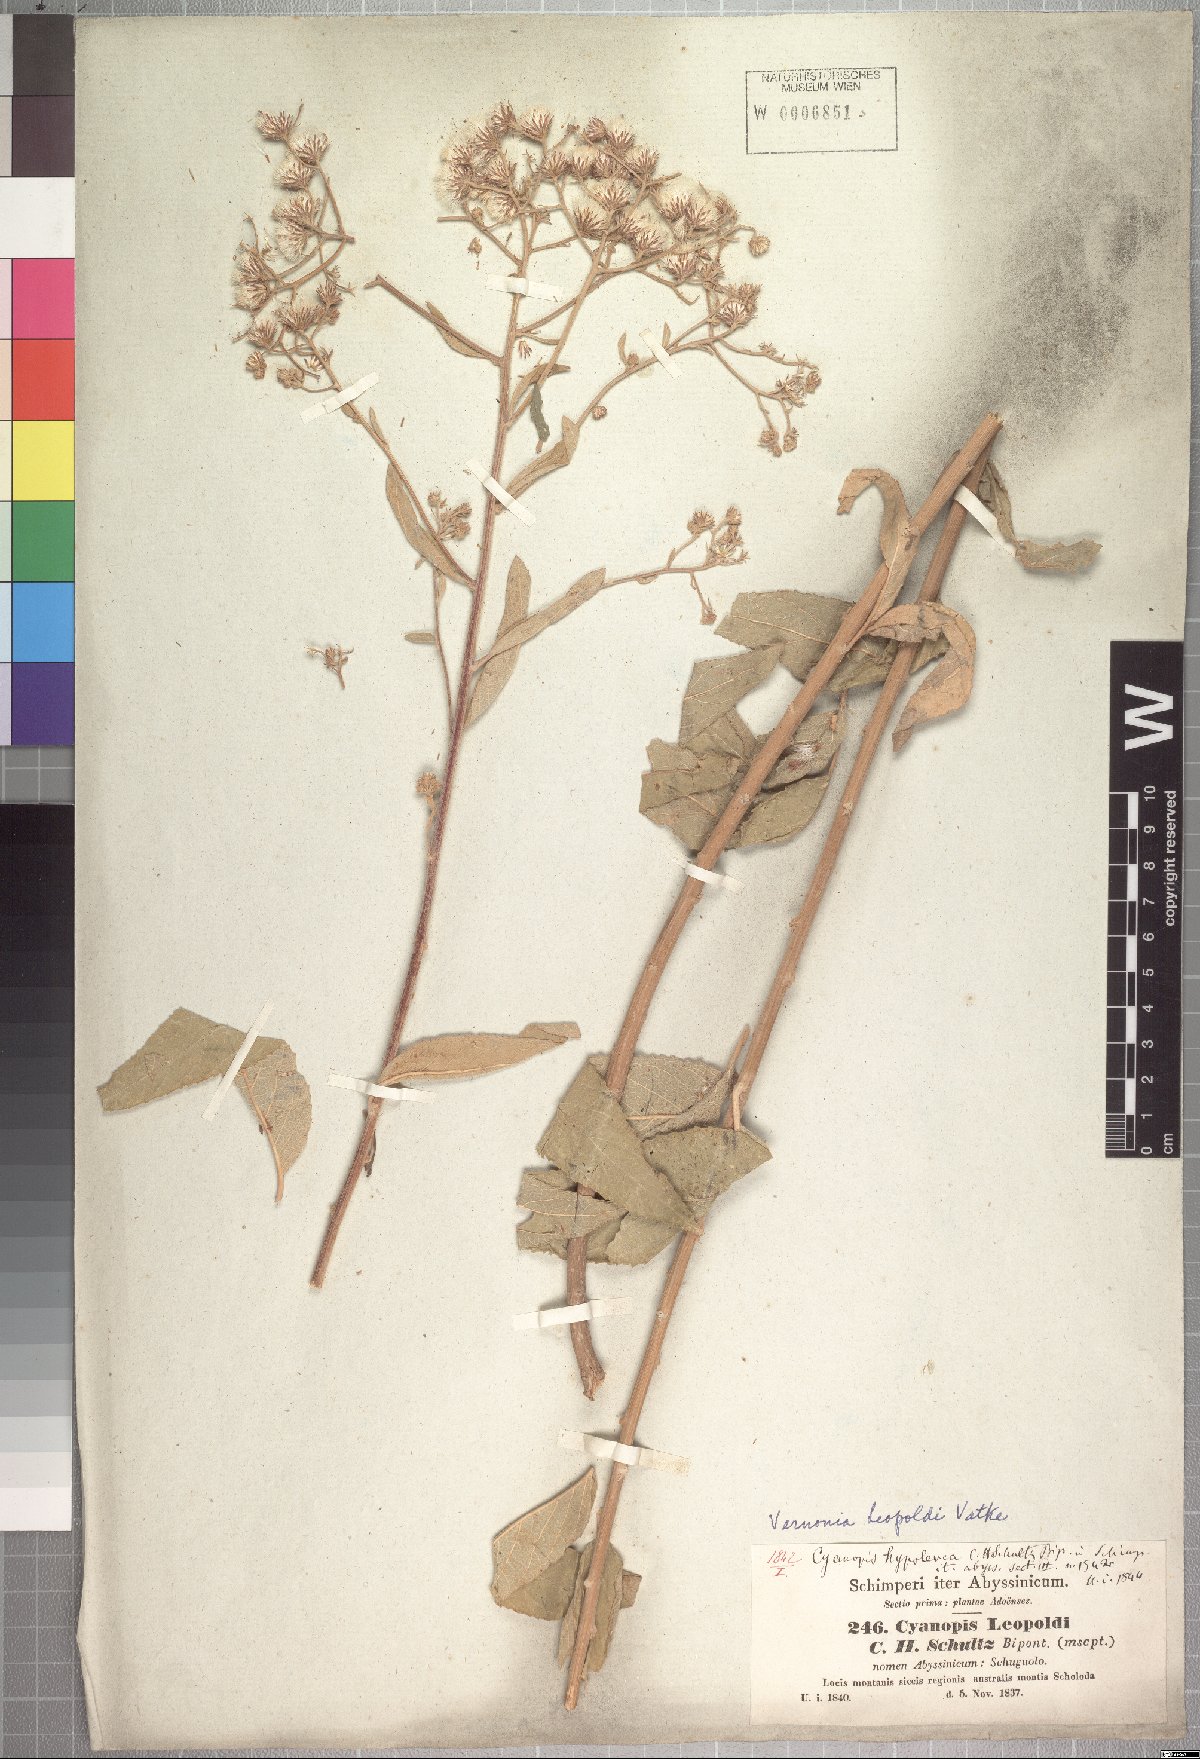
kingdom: Plantae
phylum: Tracheophyta
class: Magnoliopsida
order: Asterales
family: Asteraceae
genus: Vernonia
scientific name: Vernonia bipontini
